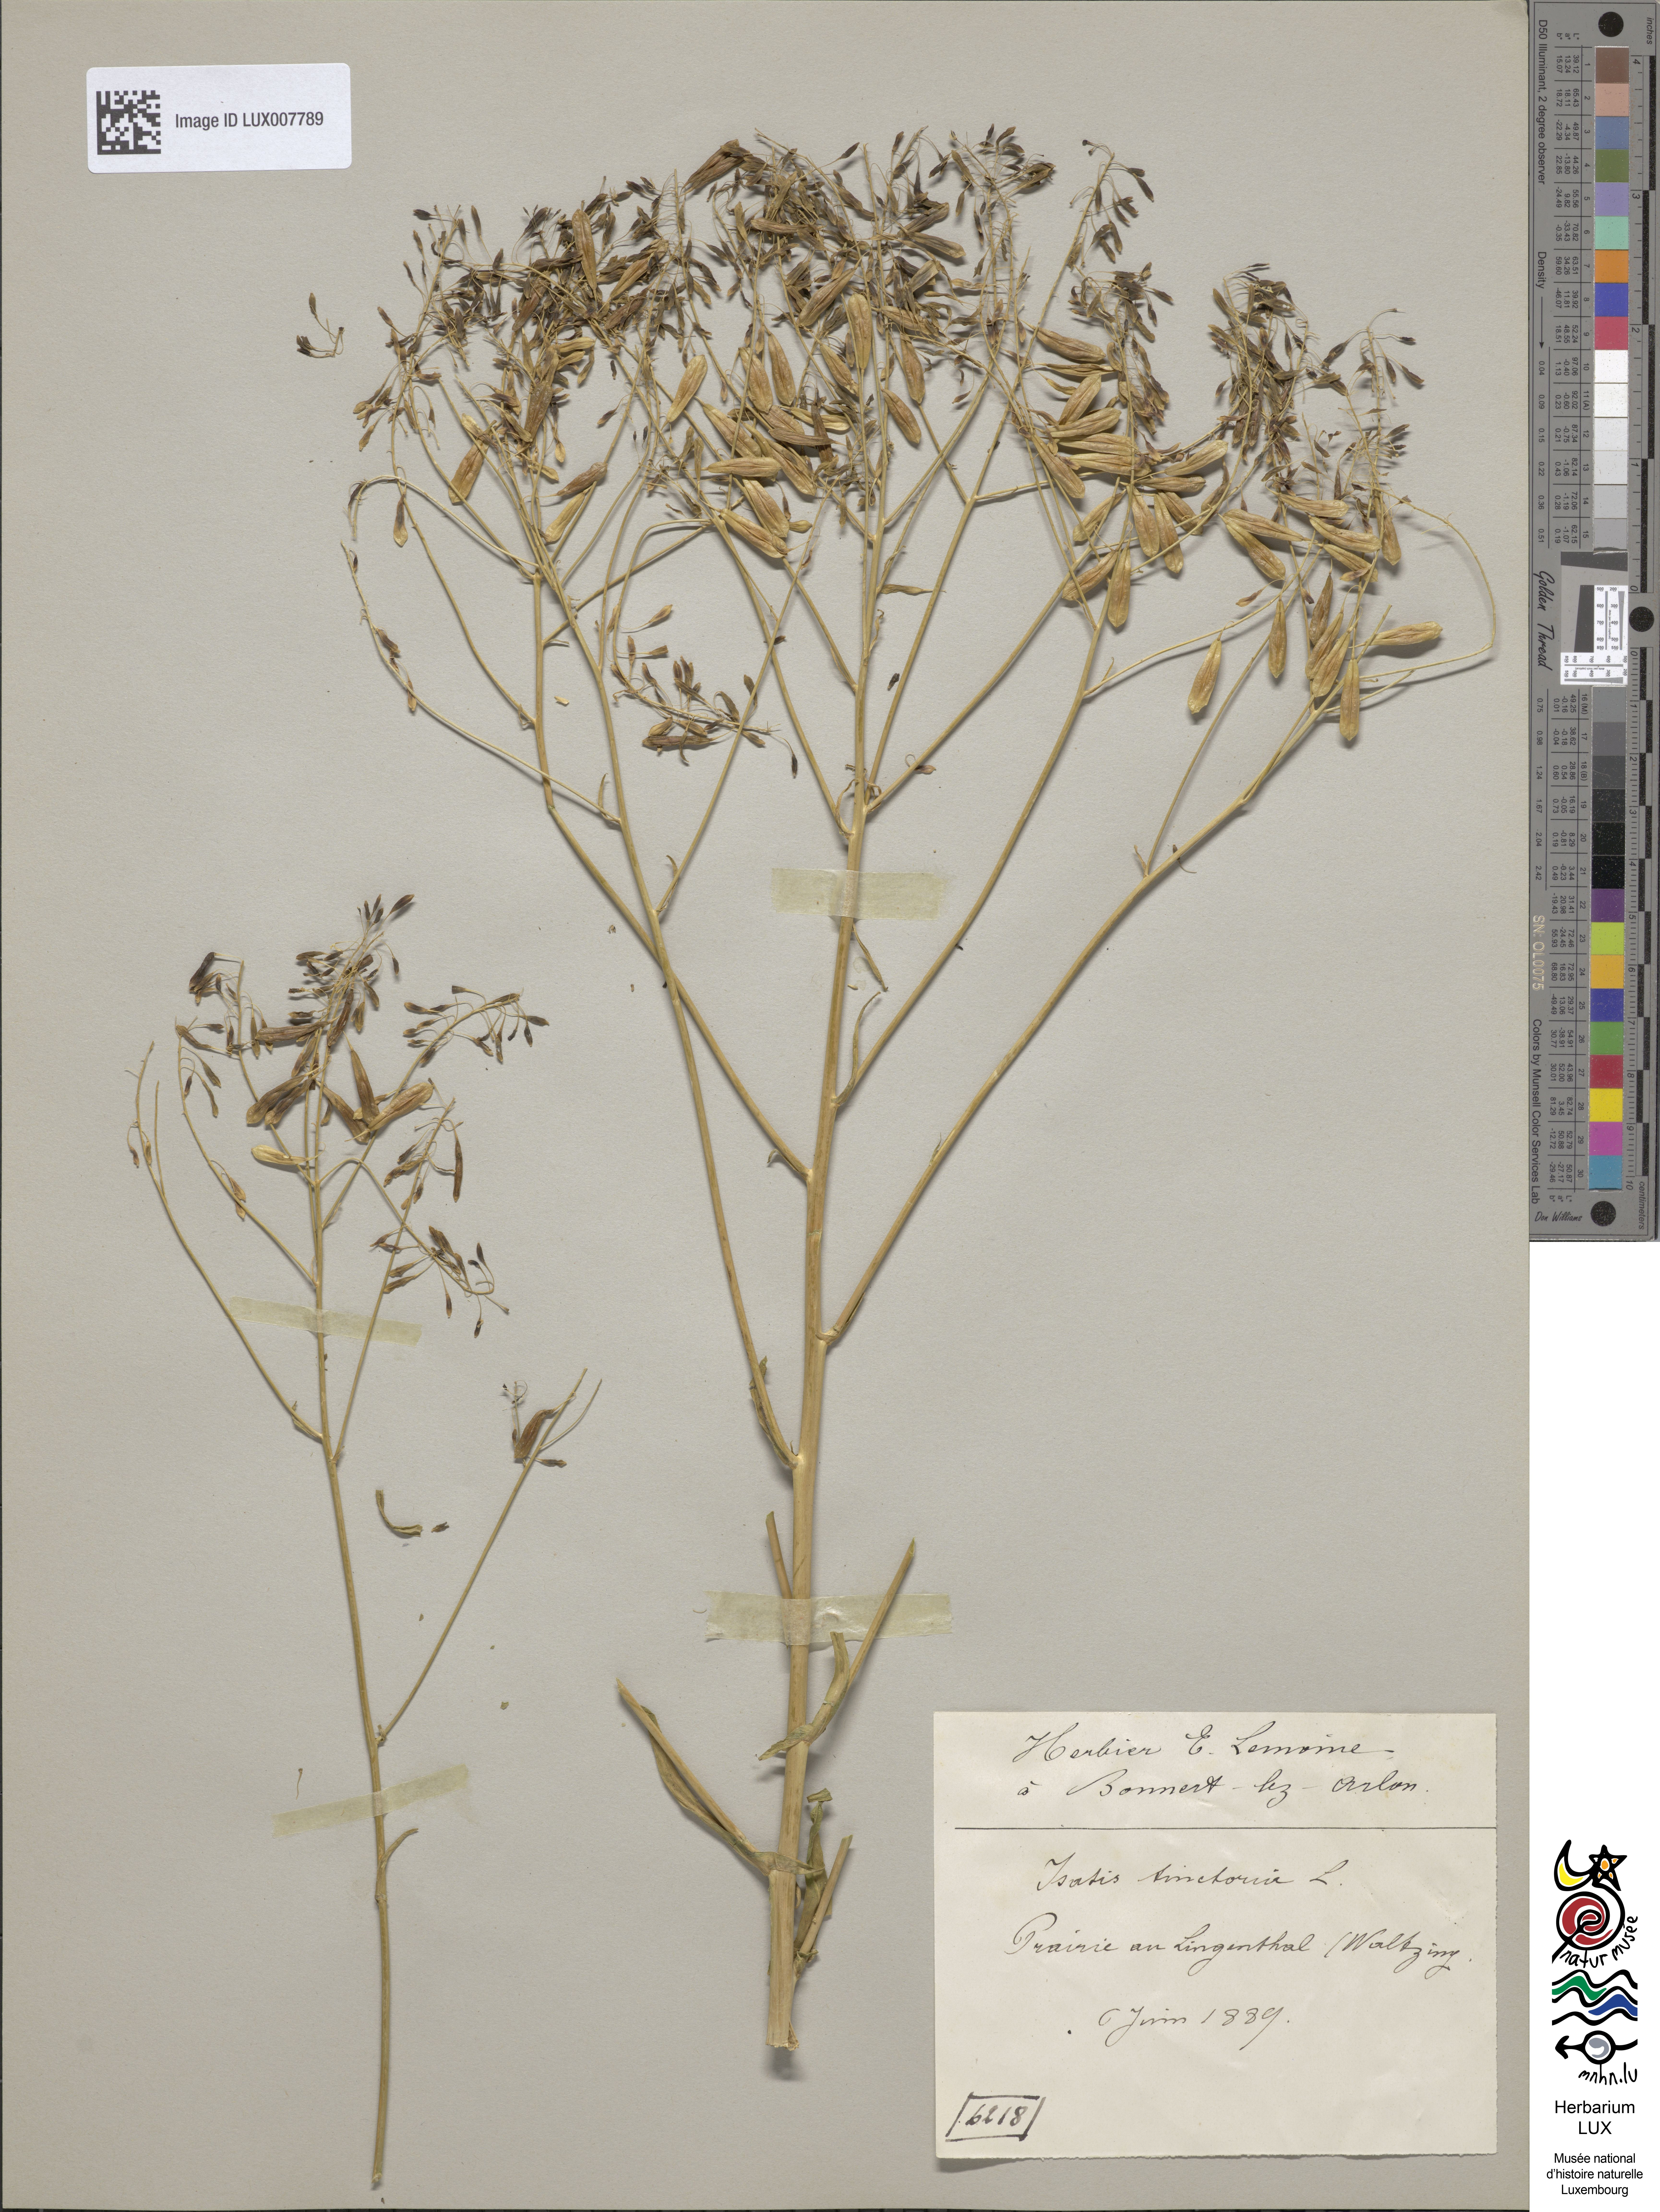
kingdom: Plantae
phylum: Tracheophyta
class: Magnoliopsida
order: Brassicales
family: Brassicaceae
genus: Isatis
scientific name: Isatis tinctoria
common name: Woad
